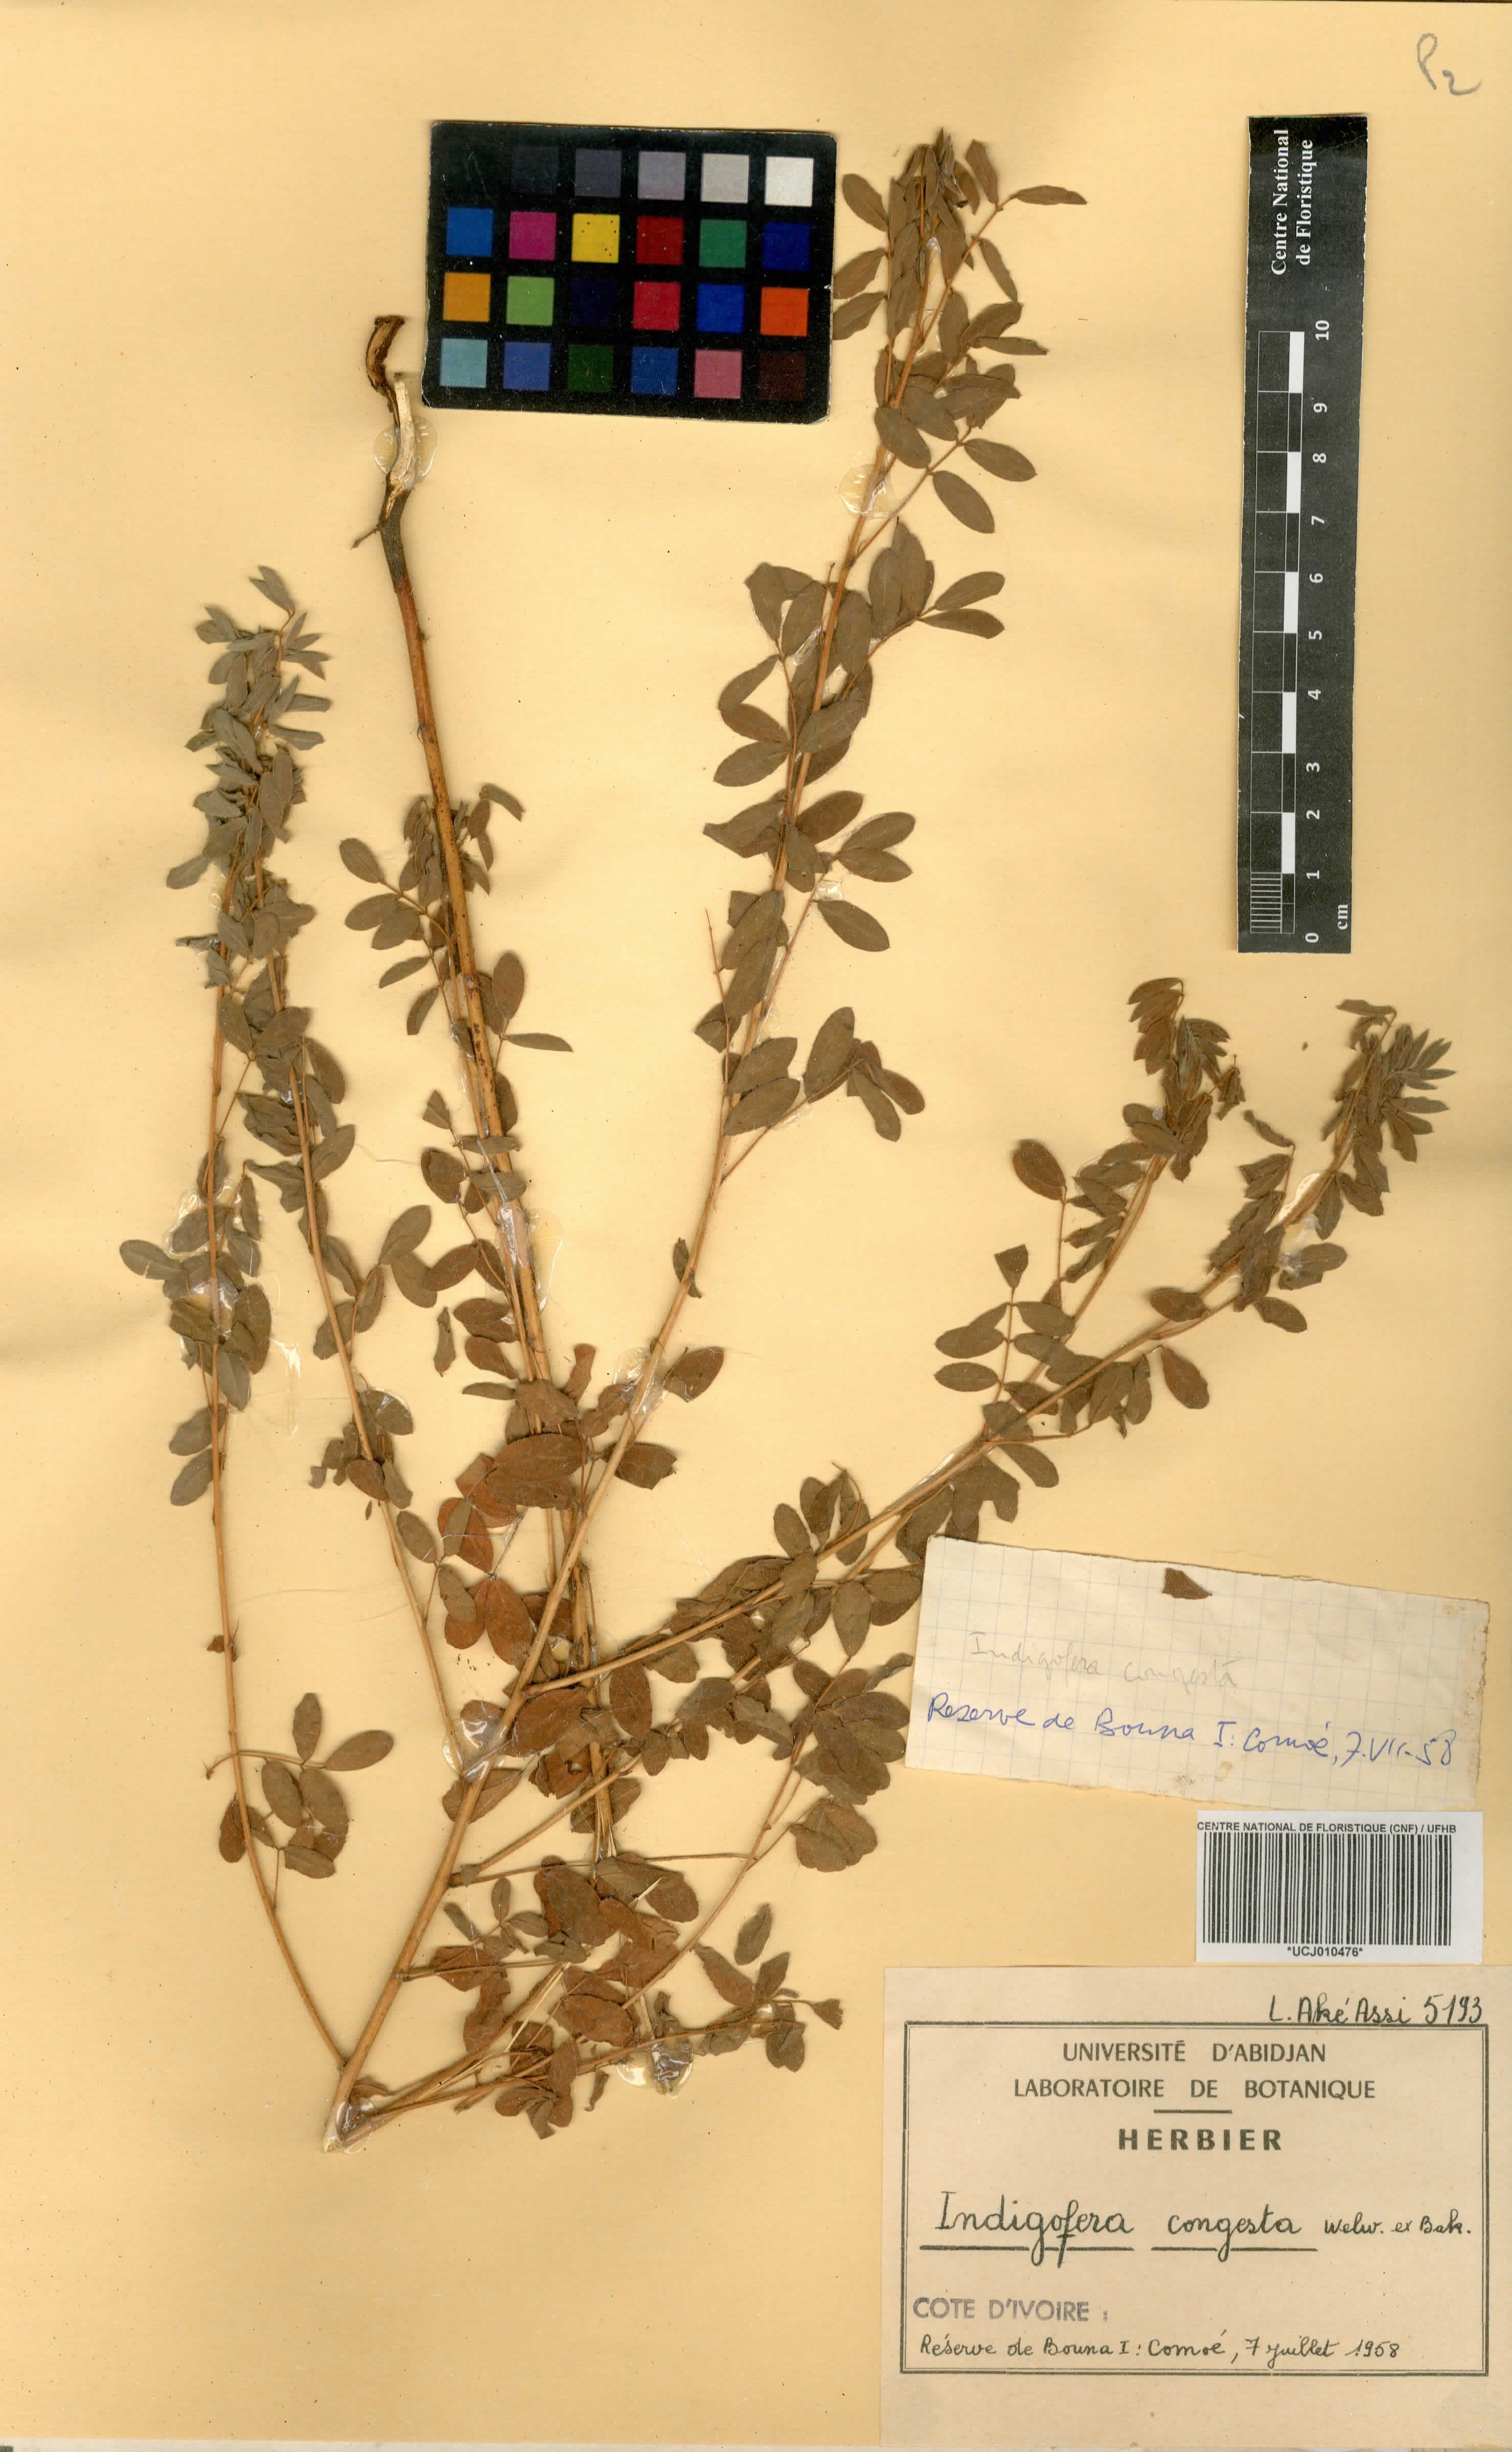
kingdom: Plantae
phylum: Tracheophyta
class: Magnoliopsida
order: Fabales
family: Fabaceae
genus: Indigofera
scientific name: Indigofera congesta
